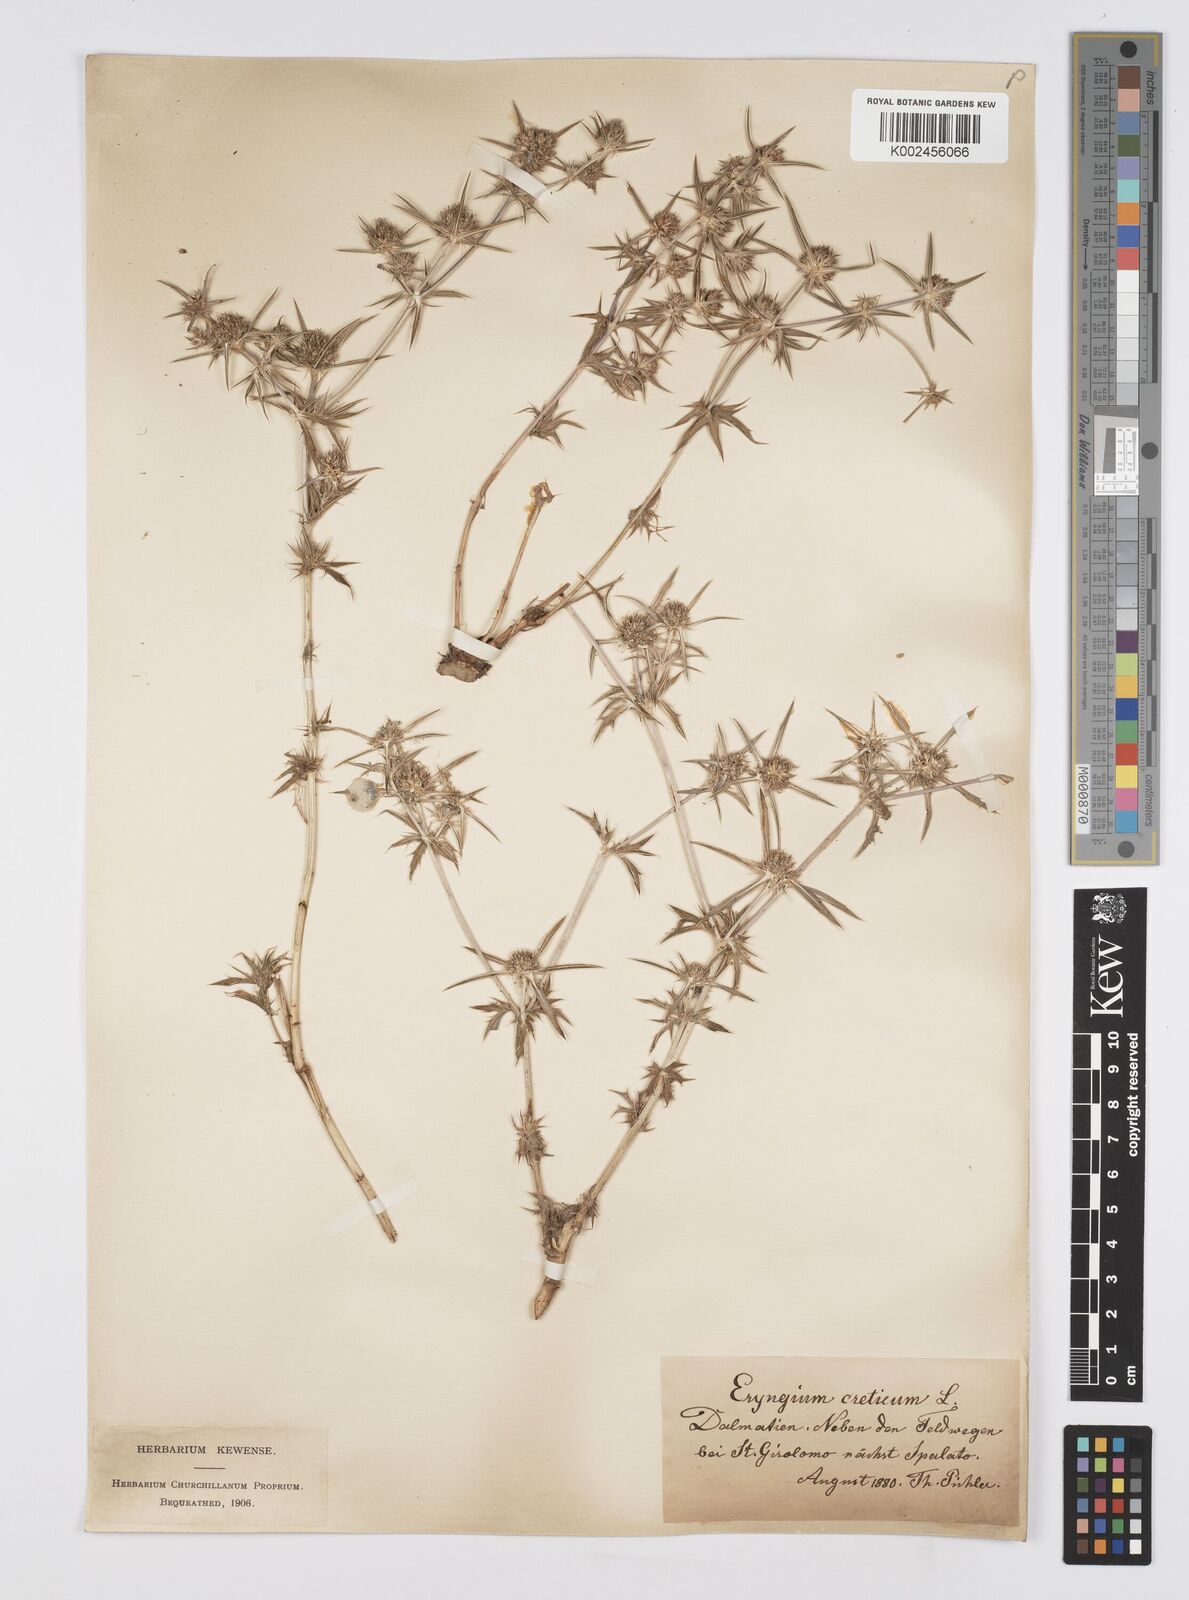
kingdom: Plantae
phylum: Tracheophyta
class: Magnoliopsida
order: Apiales
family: Apiaceae
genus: Eryngium
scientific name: Eryngium creticum
